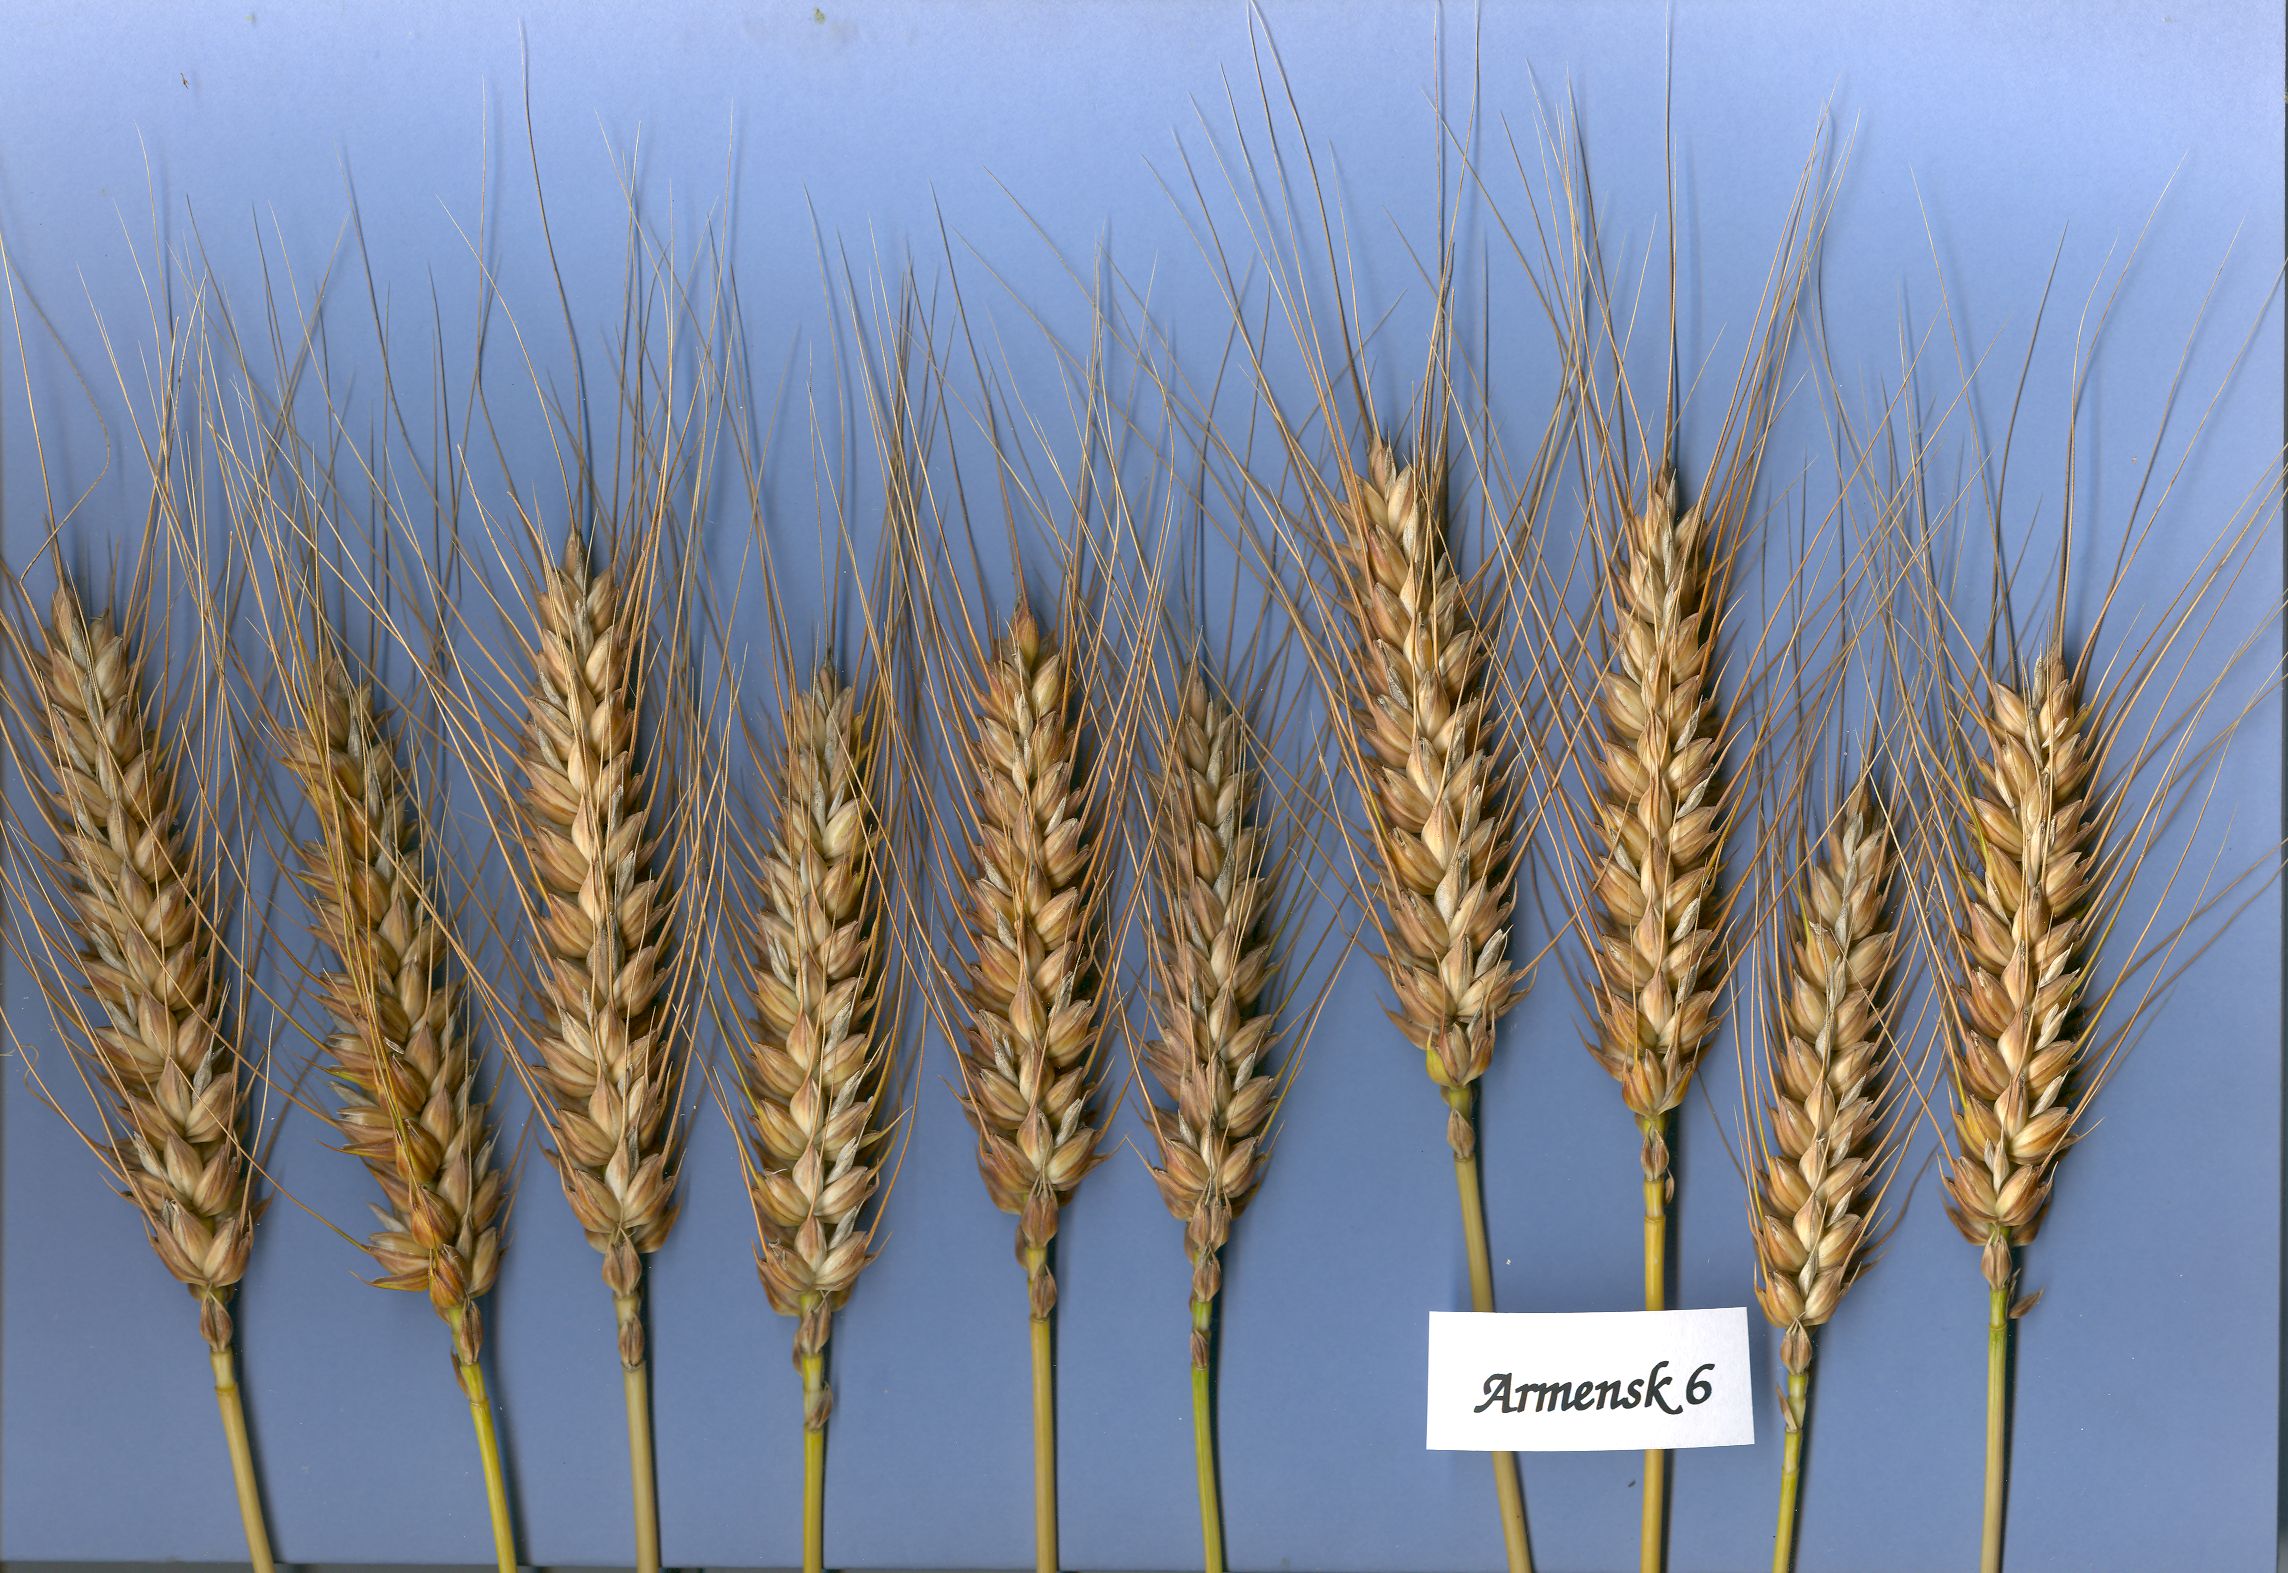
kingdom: Plantae
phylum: Tracheophyta
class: Liliopsida
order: Poales
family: Poaceae
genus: Triticum
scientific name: Triticum aestivum
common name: Common wheat
